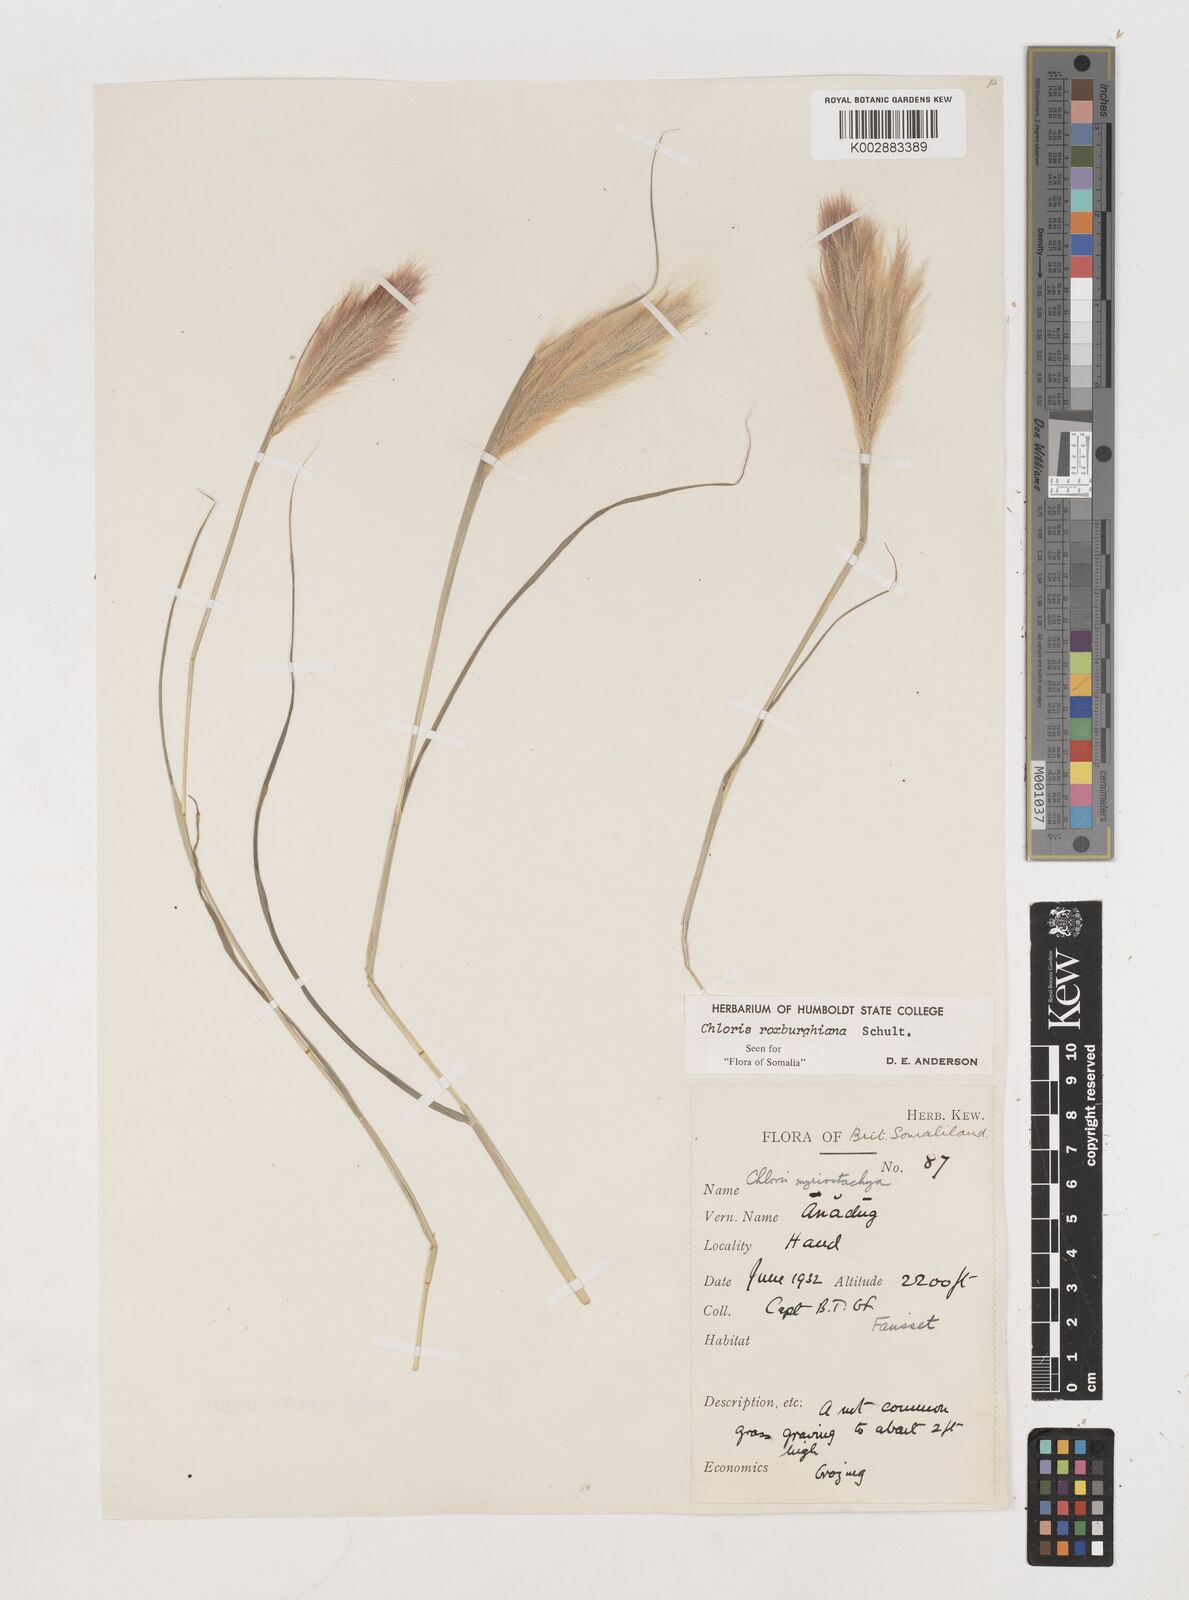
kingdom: Plantae
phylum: Tracheophyta
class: Liliopsida
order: Poales
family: Poaceae
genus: Tetrapogon
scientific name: Tetrapogon roxburghiana
